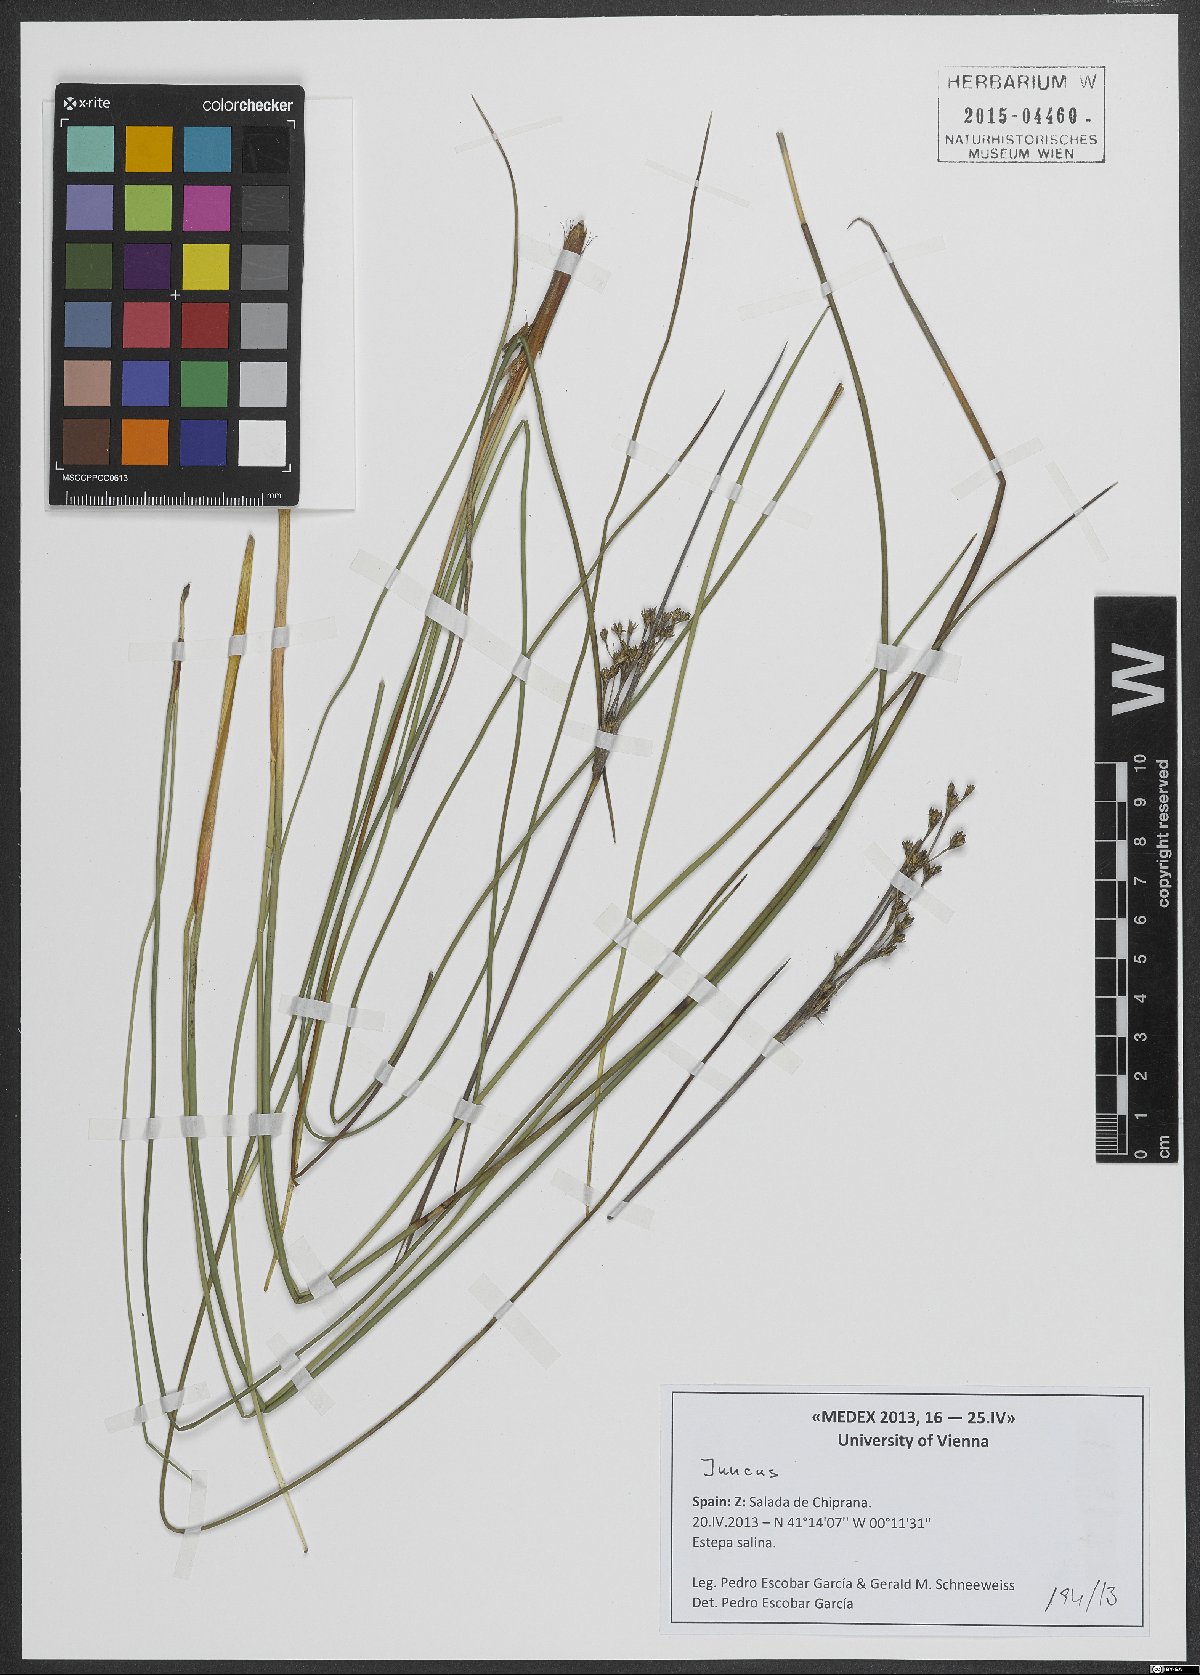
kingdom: Plantae
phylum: Tracheophyta
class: Liliopsida
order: Poales
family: Juncaceae
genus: Juncus
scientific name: Juncus
